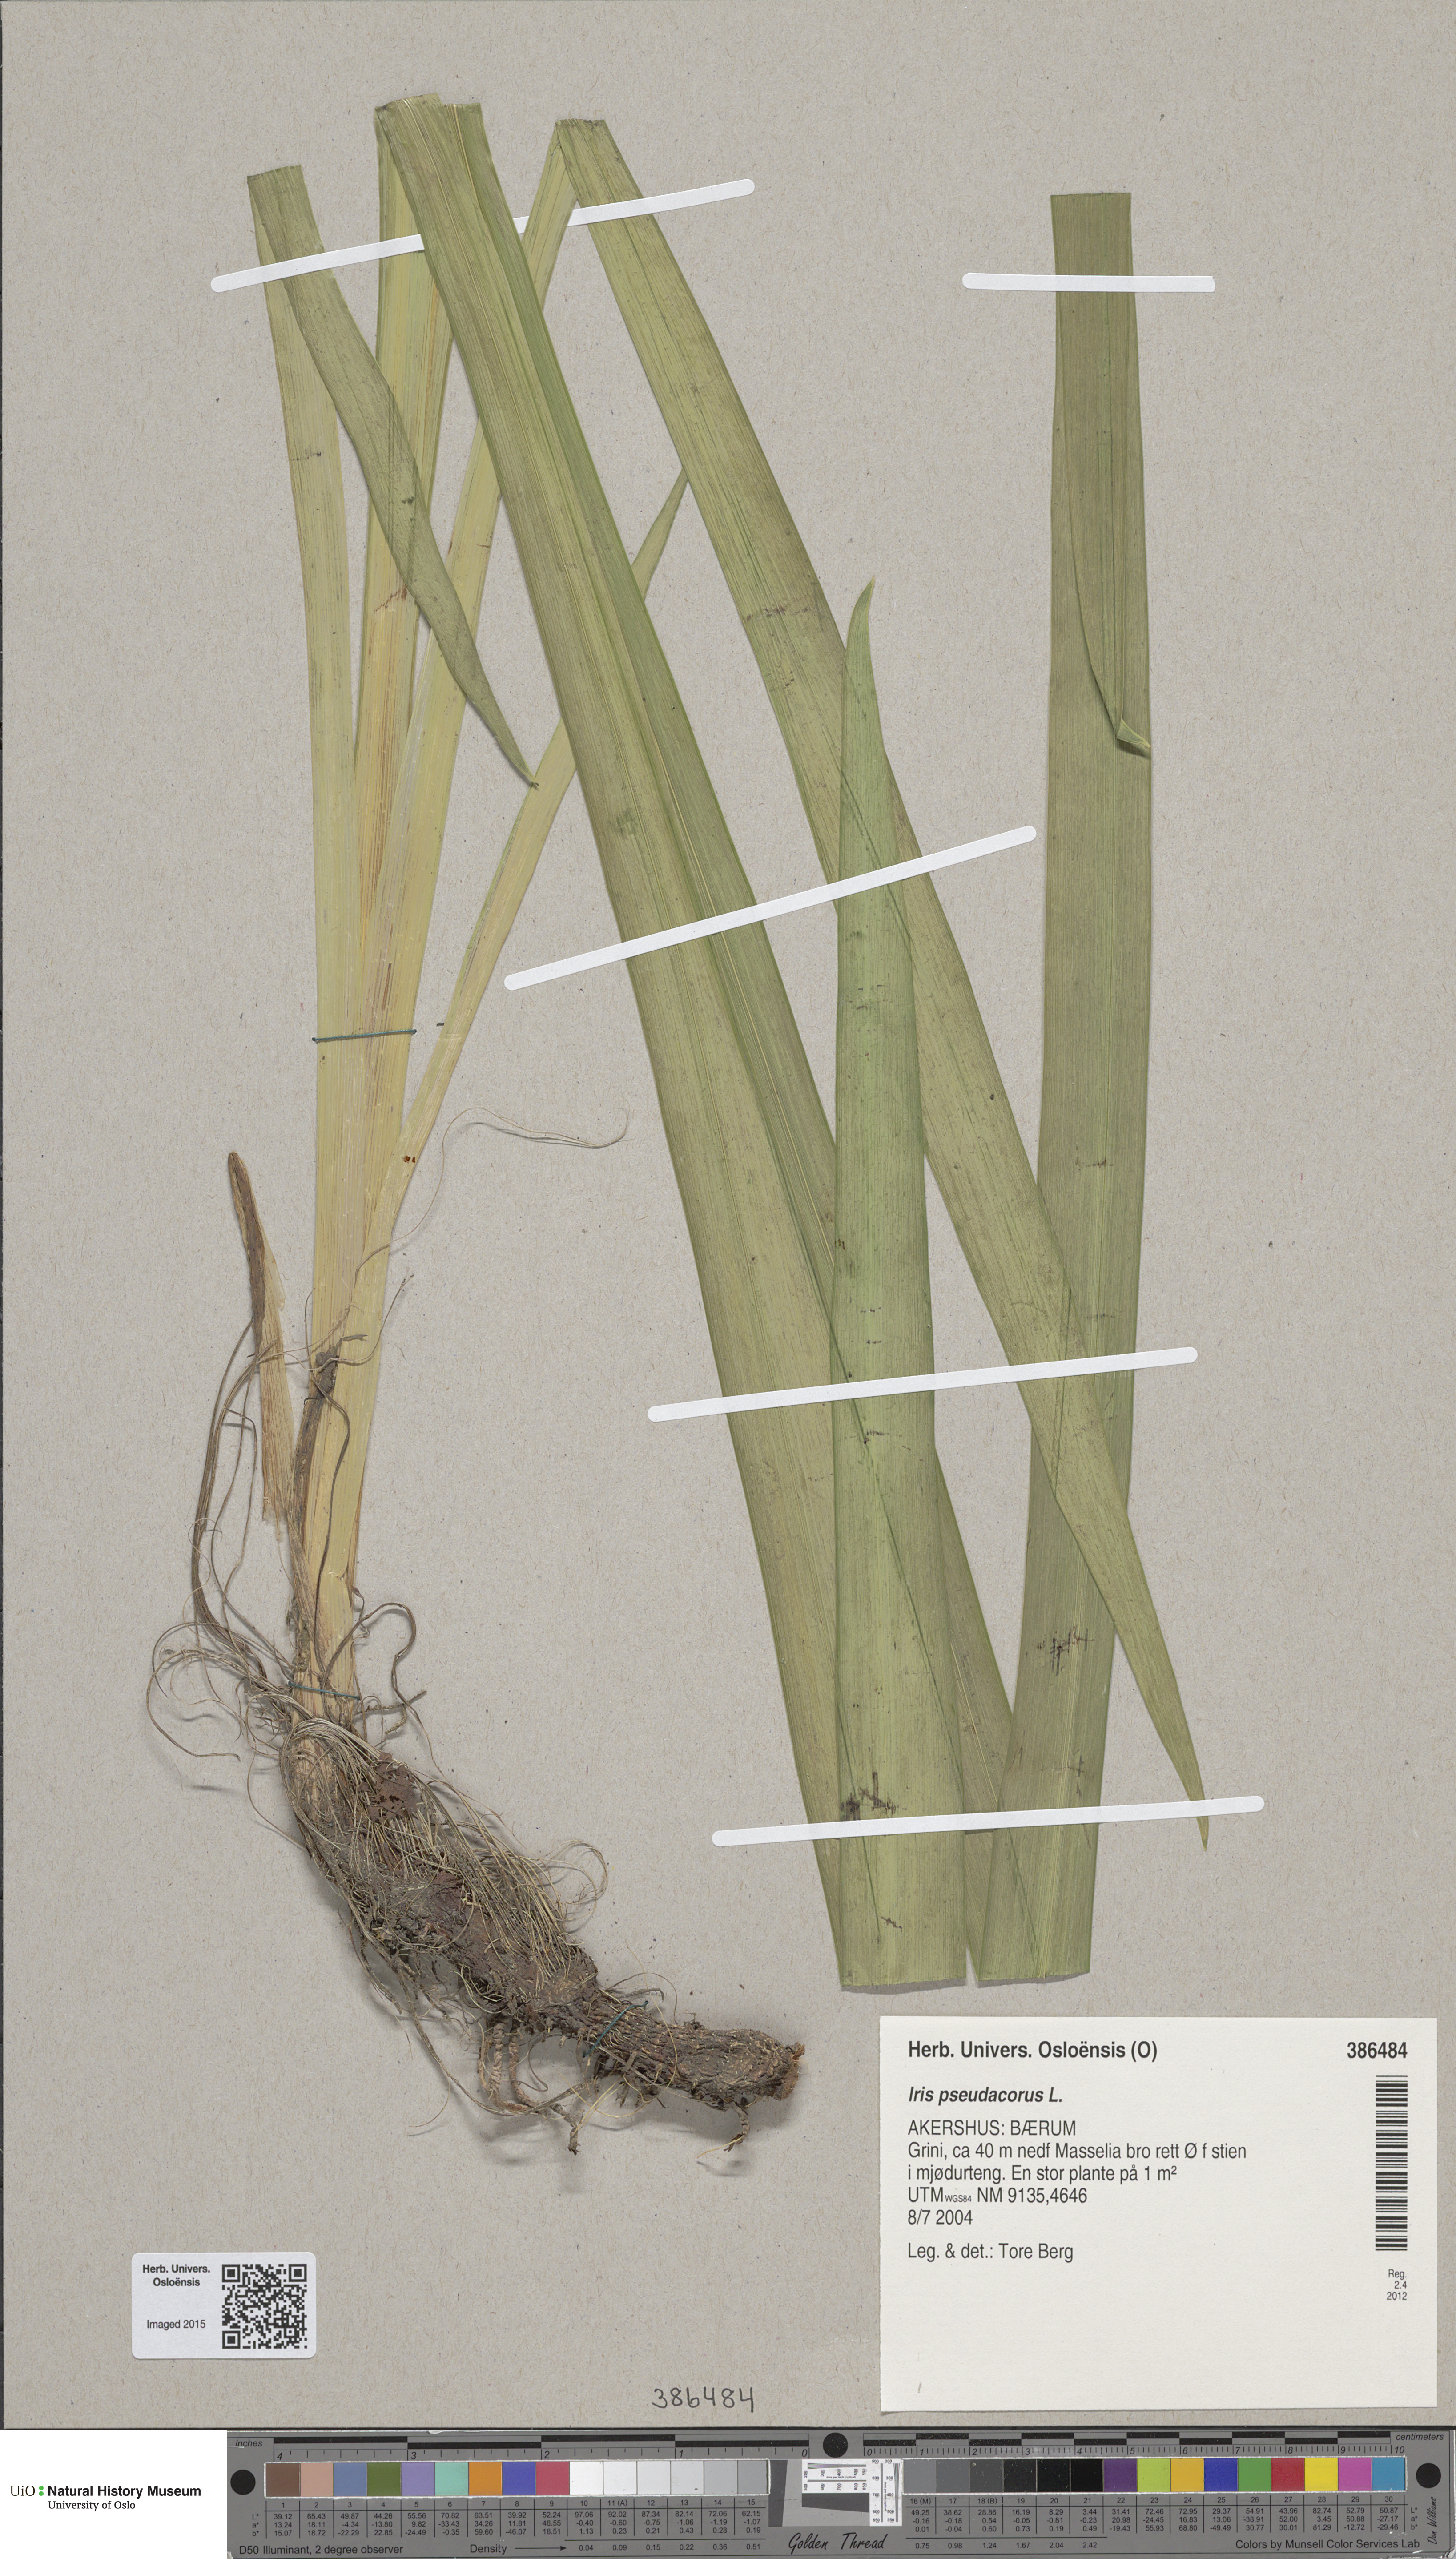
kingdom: Plantae
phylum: Tracheophyta
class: Liliopsida
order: Asparagales
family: Iridaceae
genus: Iris
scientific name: Iris pseudacorus
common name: Yellow flag
